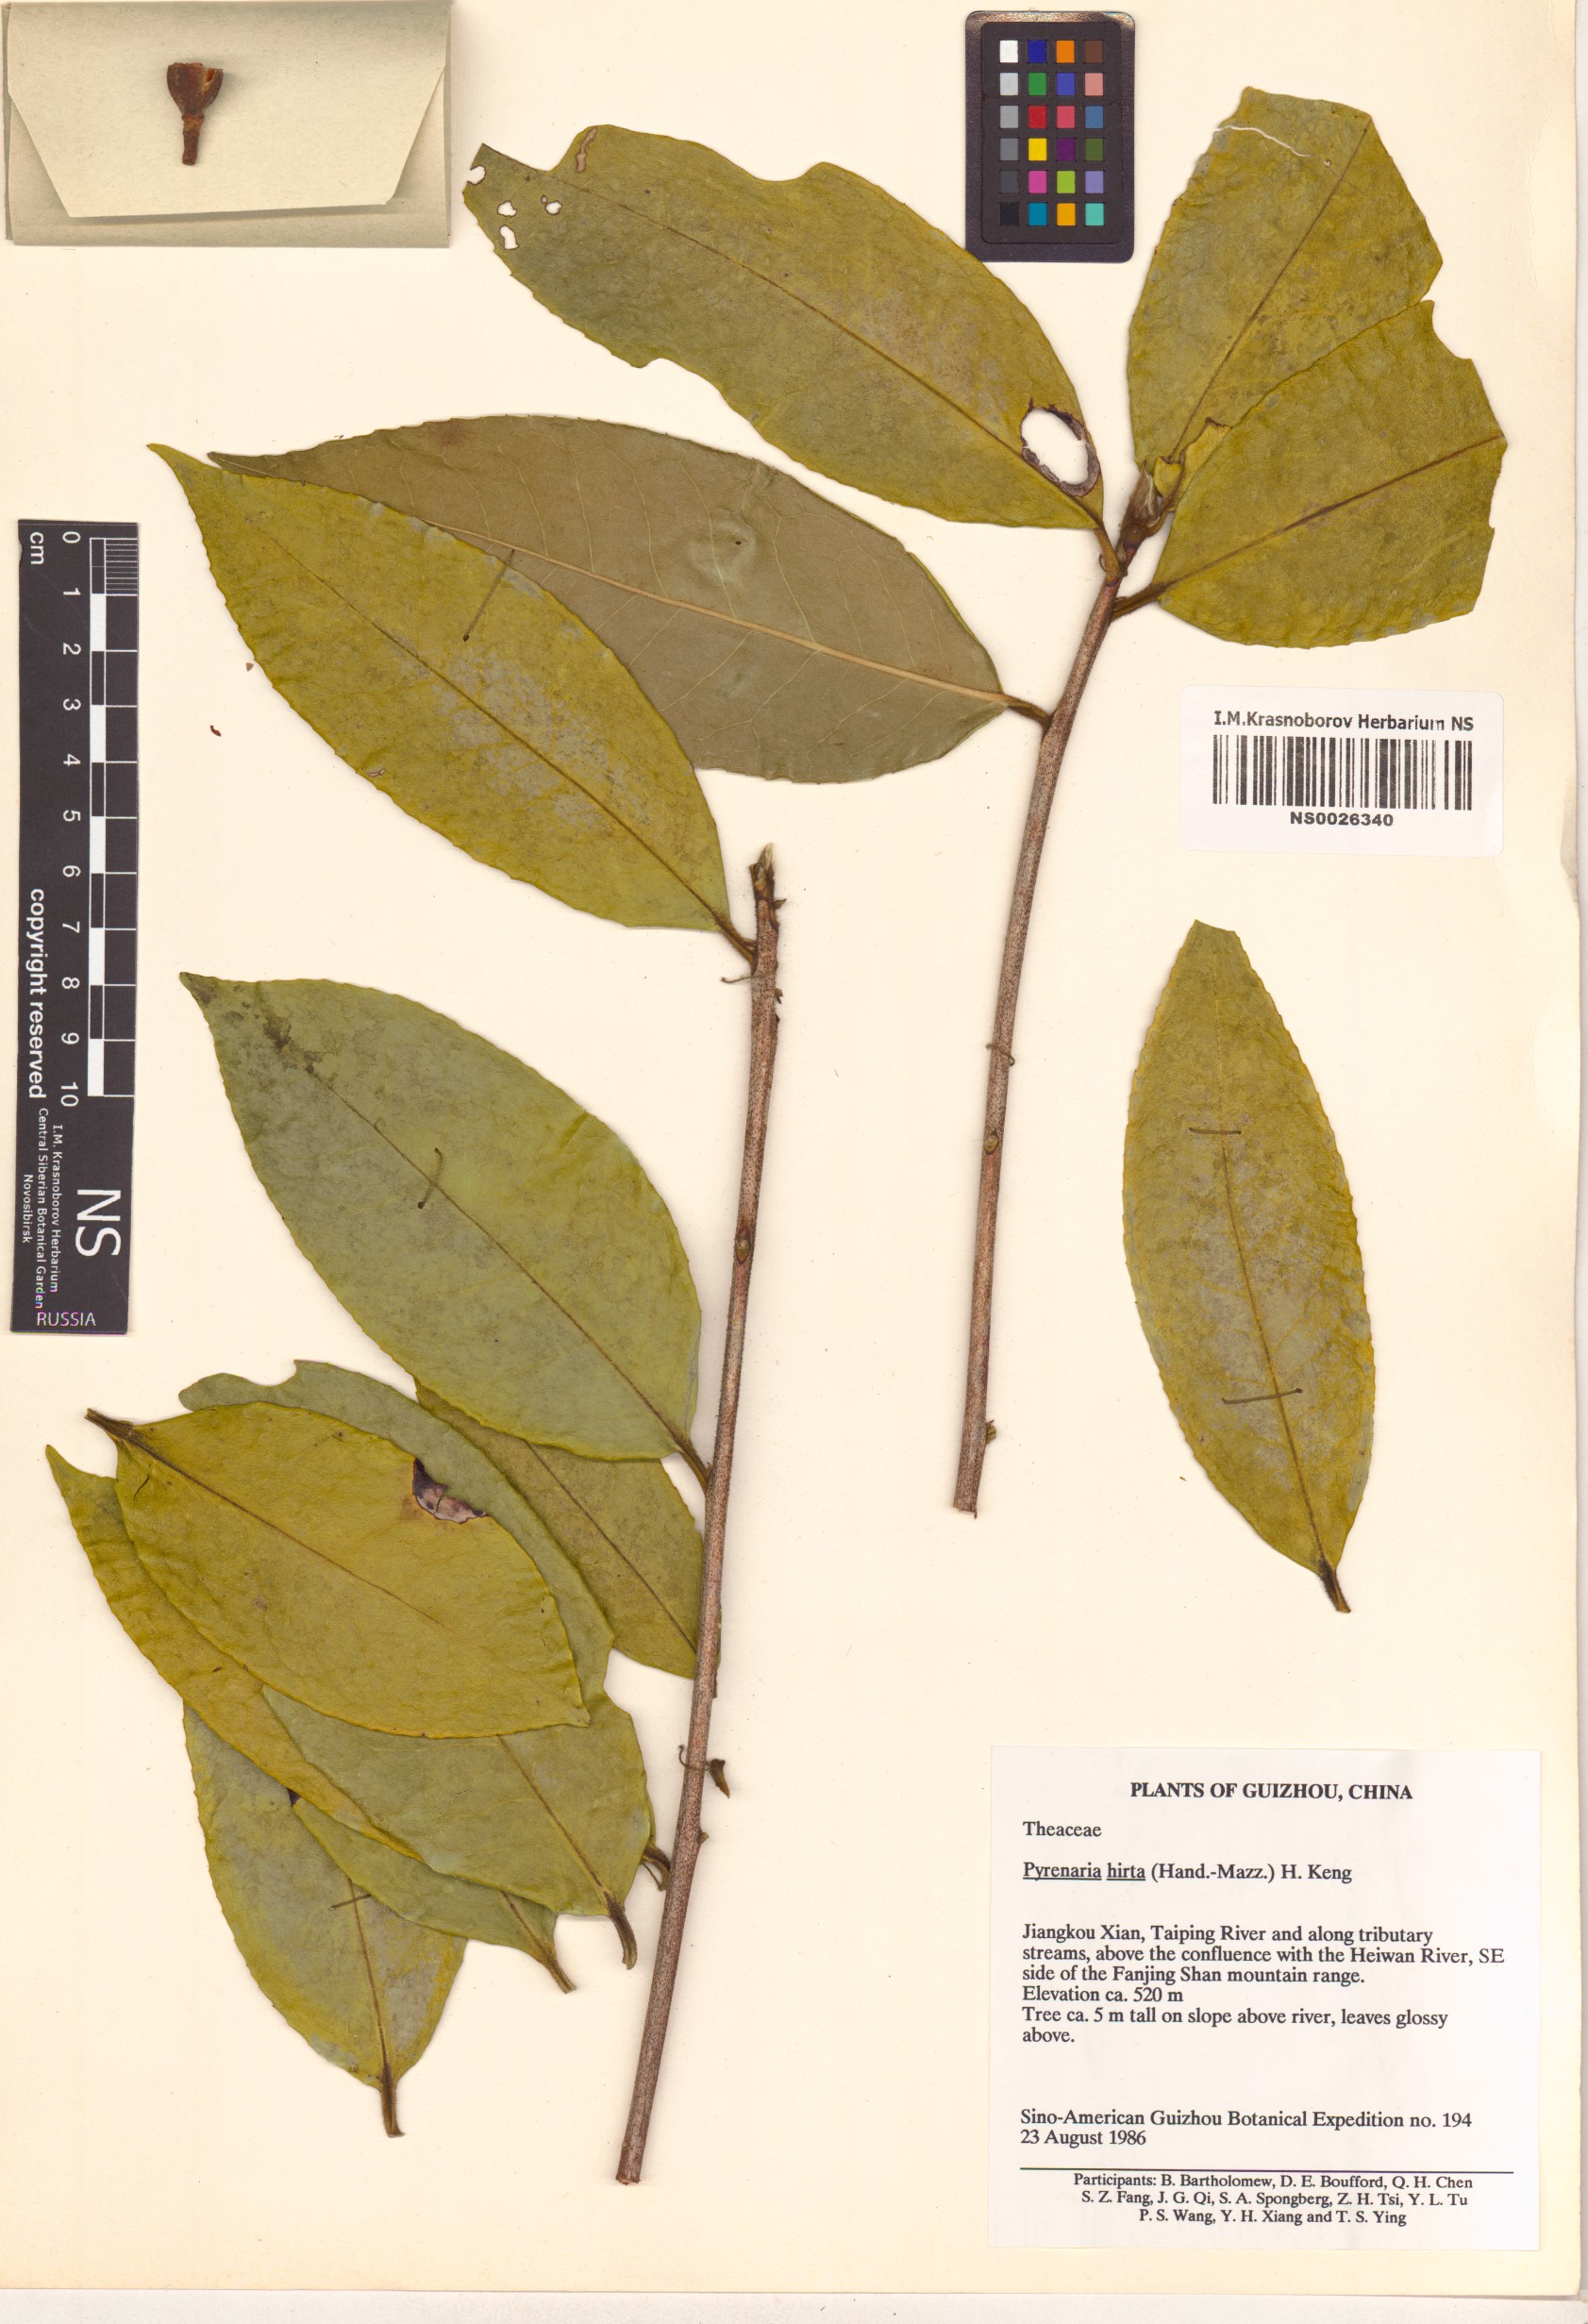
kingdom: Plantae
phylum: Tracheophyta
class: Magnoliopsida
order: Ericales
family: Theaceae
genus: Pyrenaria
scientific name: Pyrenaria hirta
